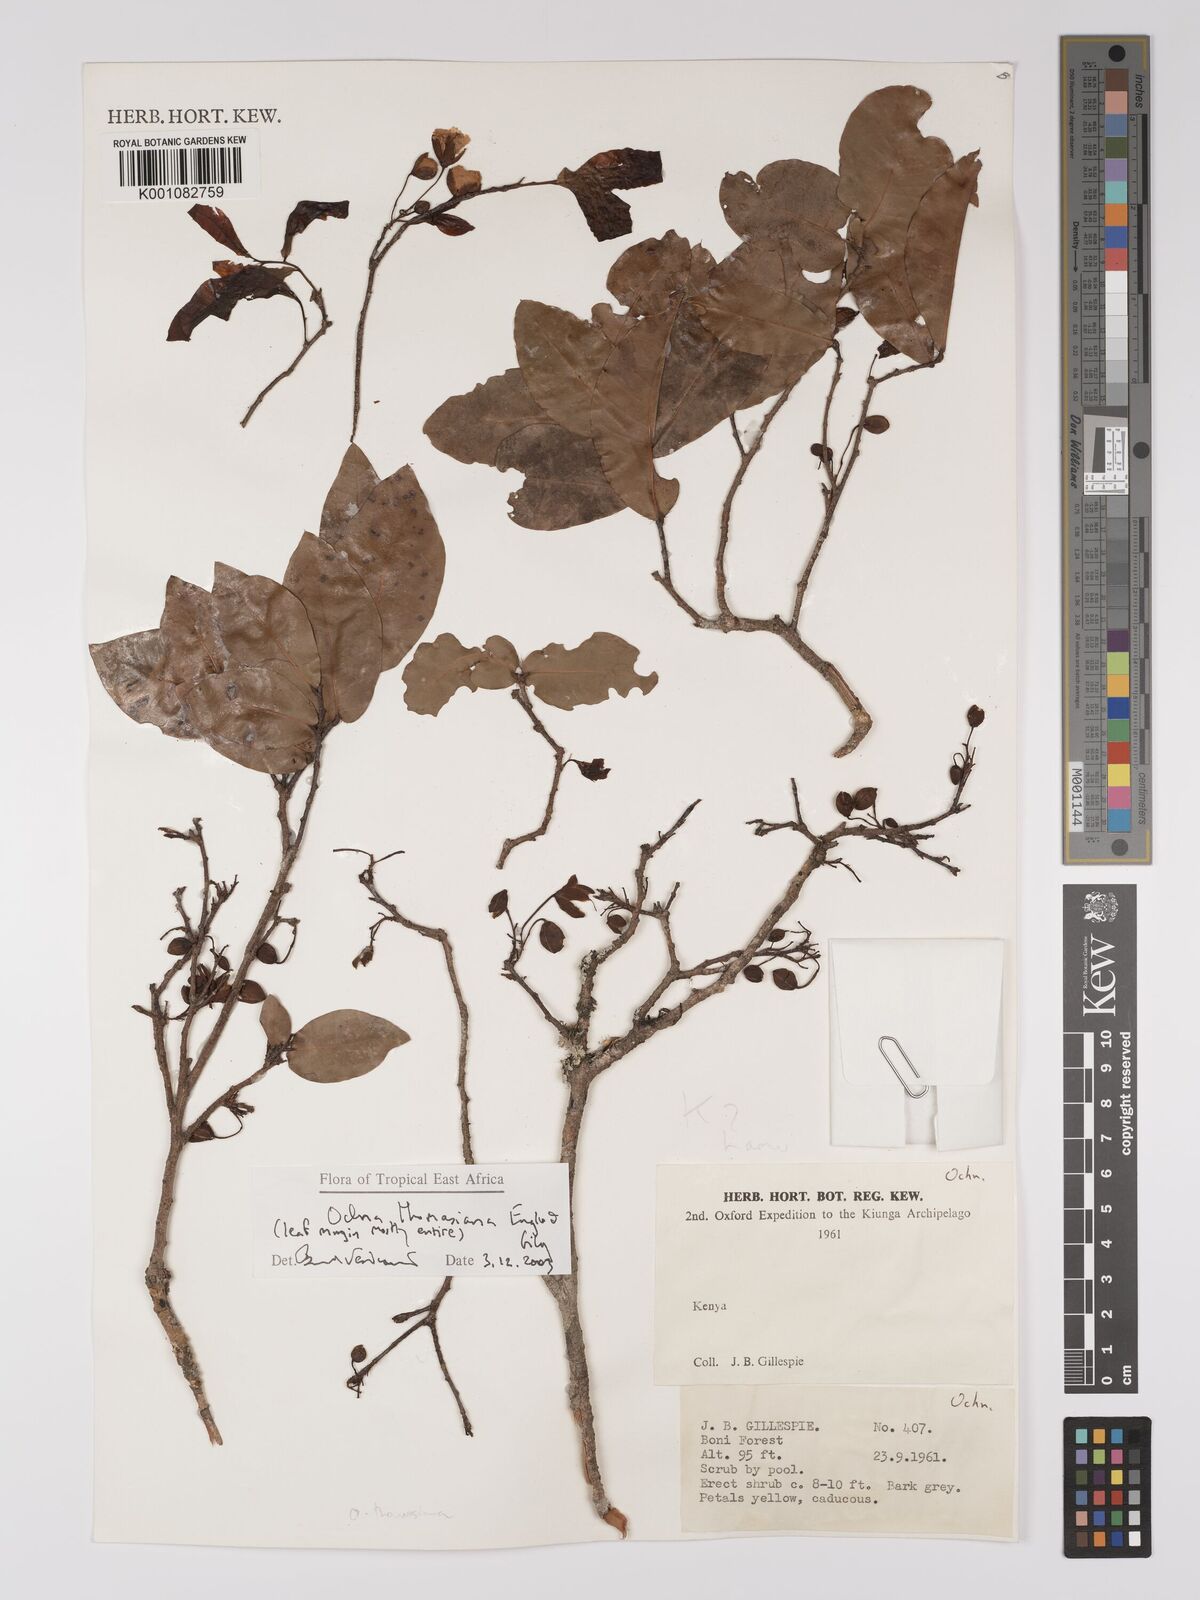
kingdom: Plantae
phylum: Tracheophyta
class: Magnoliopsida
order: Malpighiales
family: Ochnaceae
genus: Ochna
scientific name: Ochna thomasiana
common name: Thomas' bird's-eye bush
